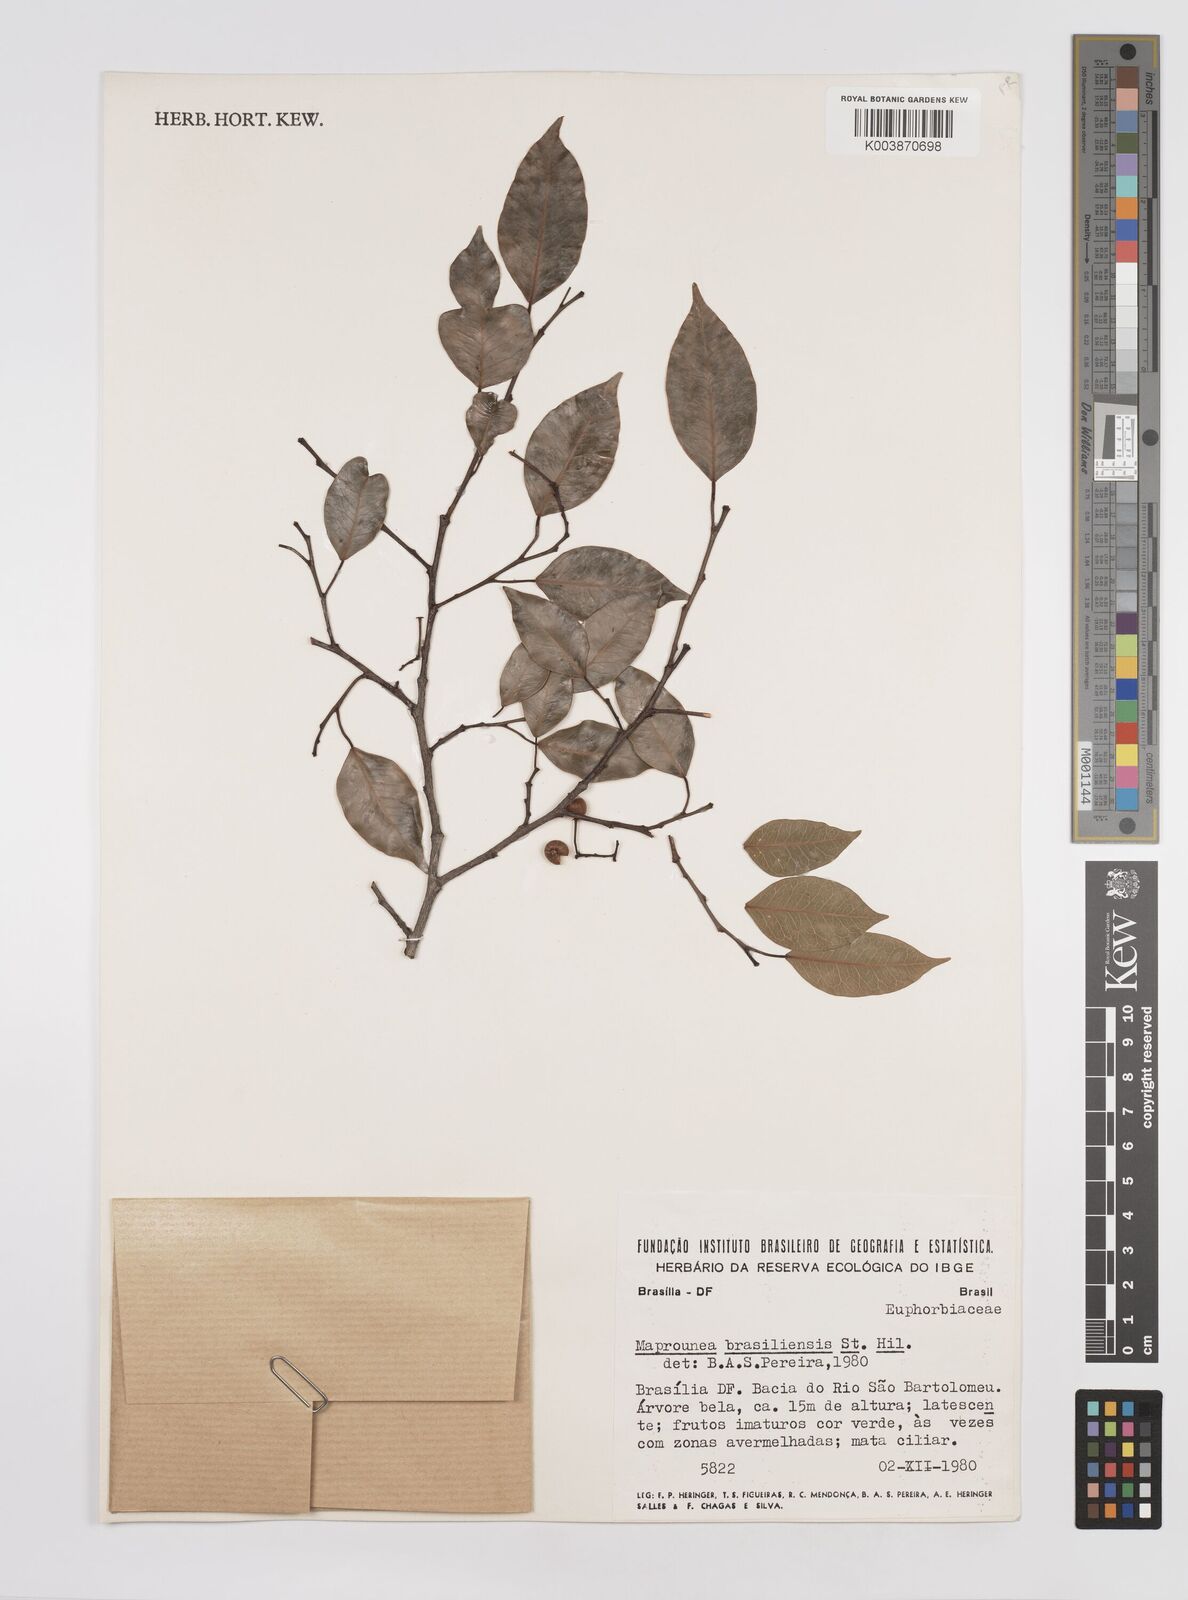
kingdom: Plantae
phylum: Tracheophyta
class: Magnoliopsida
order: Malpighiales
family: Euphorbiaceae
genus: Maprounea
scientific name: Maprounea brasiliensis
